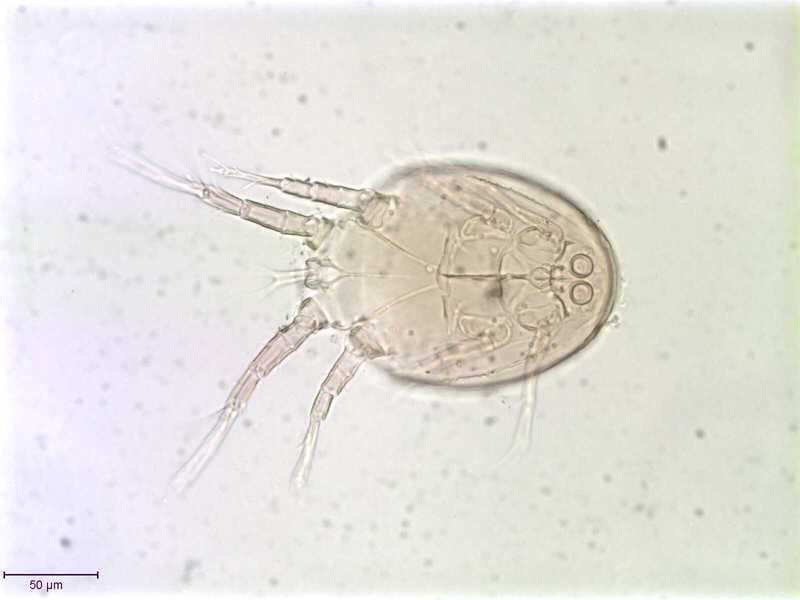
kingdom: Animalia
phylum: Arthropoda
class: Arachnida
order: Sarcoptiformes
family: Histiostomatidae
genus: Capronomoia
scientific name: Capronomoia sphaerocerae
